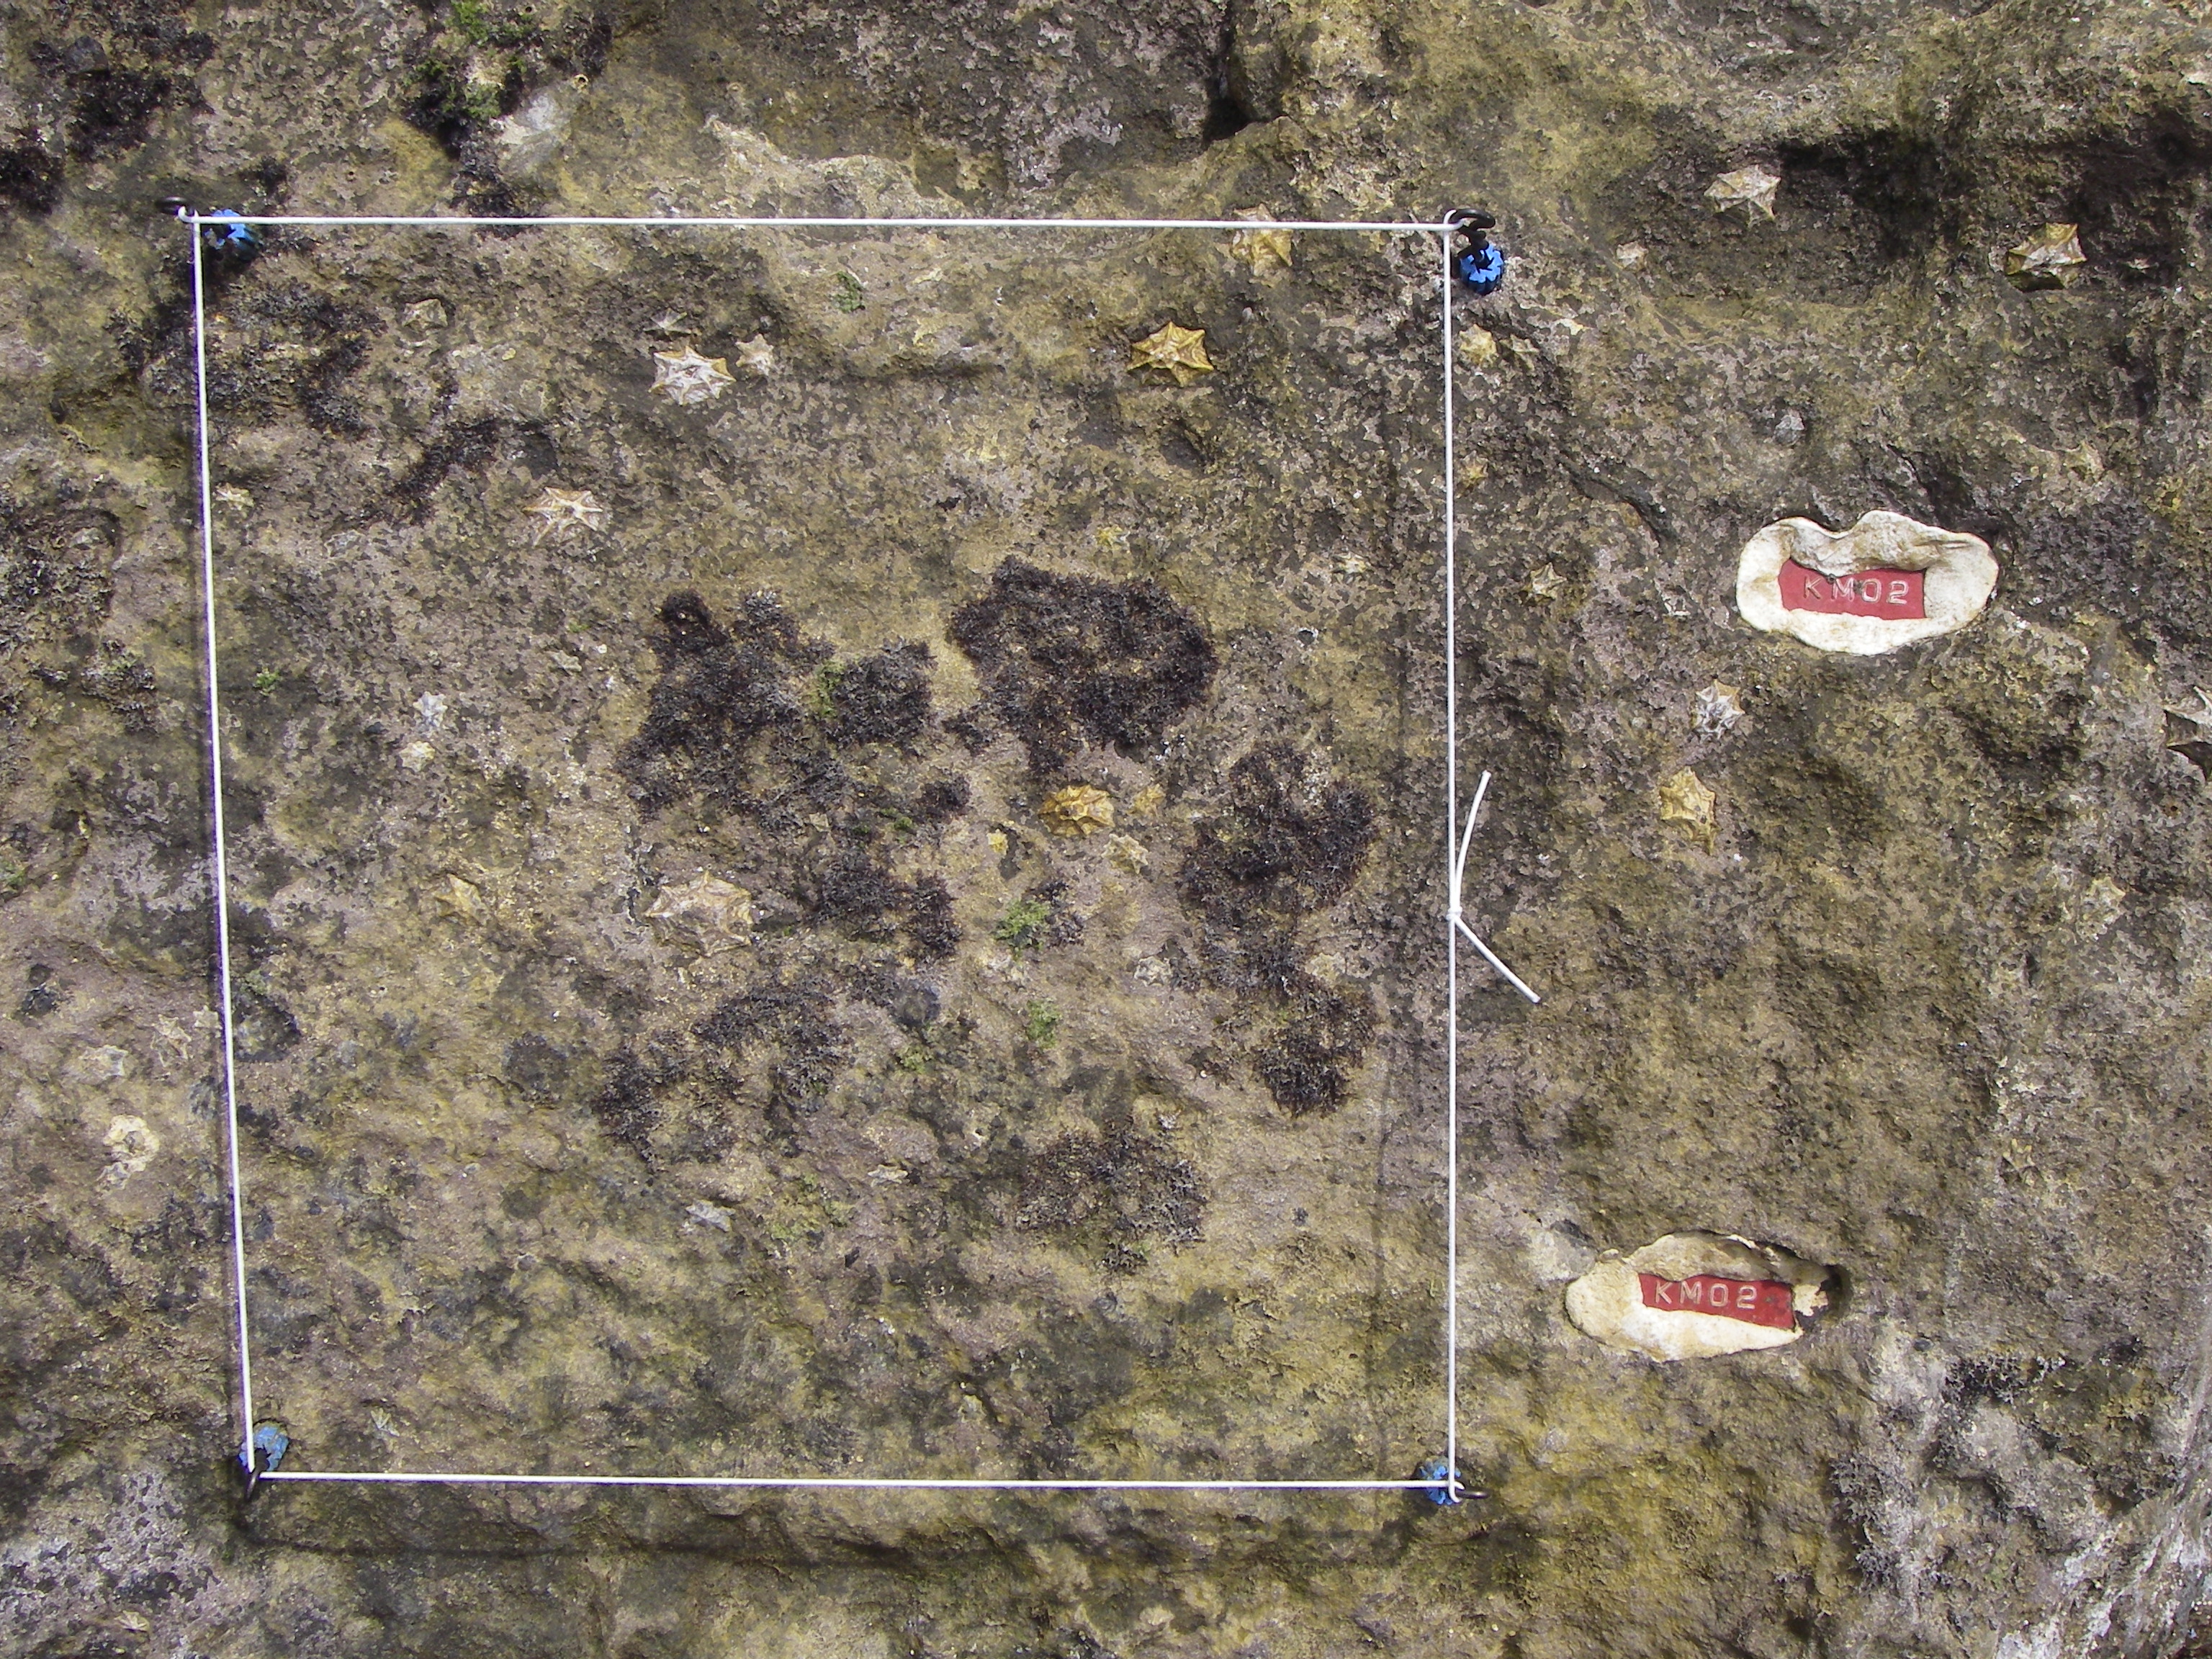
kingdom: Chromista
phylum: Ochrophyta
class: Phaeophyceae
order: Fucales
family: Sargassaceae
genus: Sargassum
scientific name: Sargassum fusiforme
